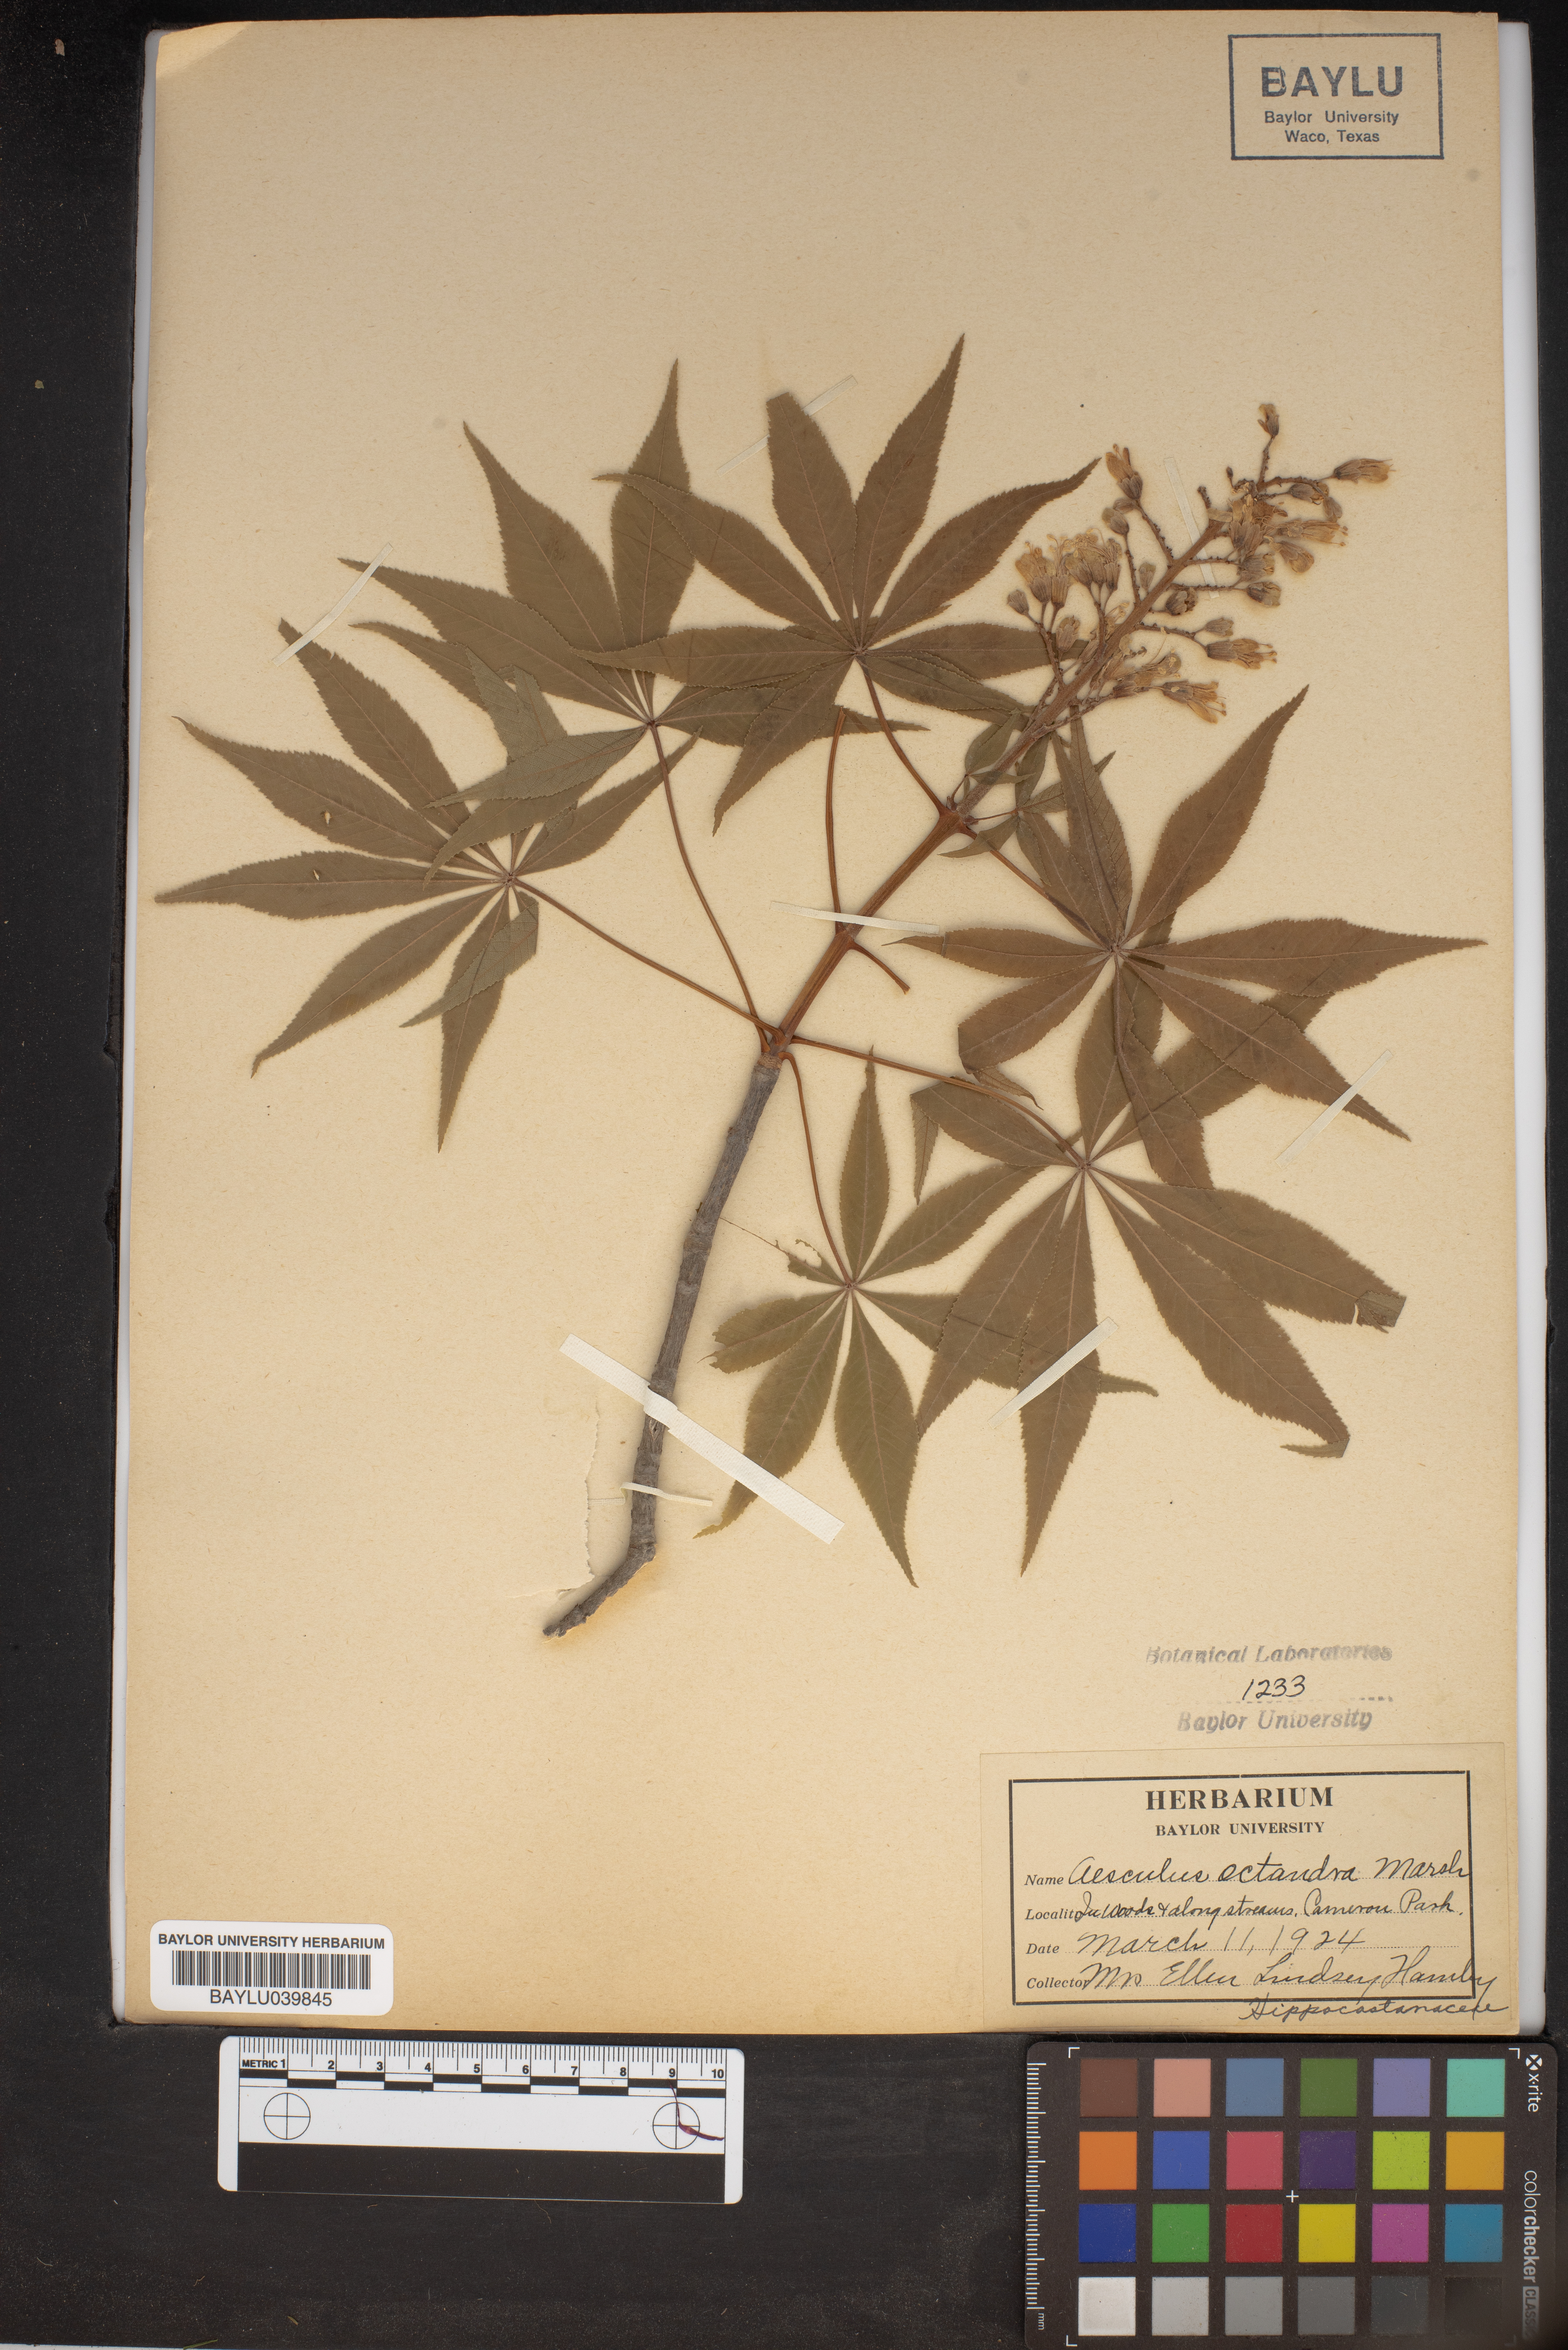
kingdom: Plantae
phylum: Tracheophyta
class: Magnoliopsida
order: Sapindales
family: Sapindaceae
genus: Aesculus
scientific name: Aesculus flava
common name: Yellow buckeye
